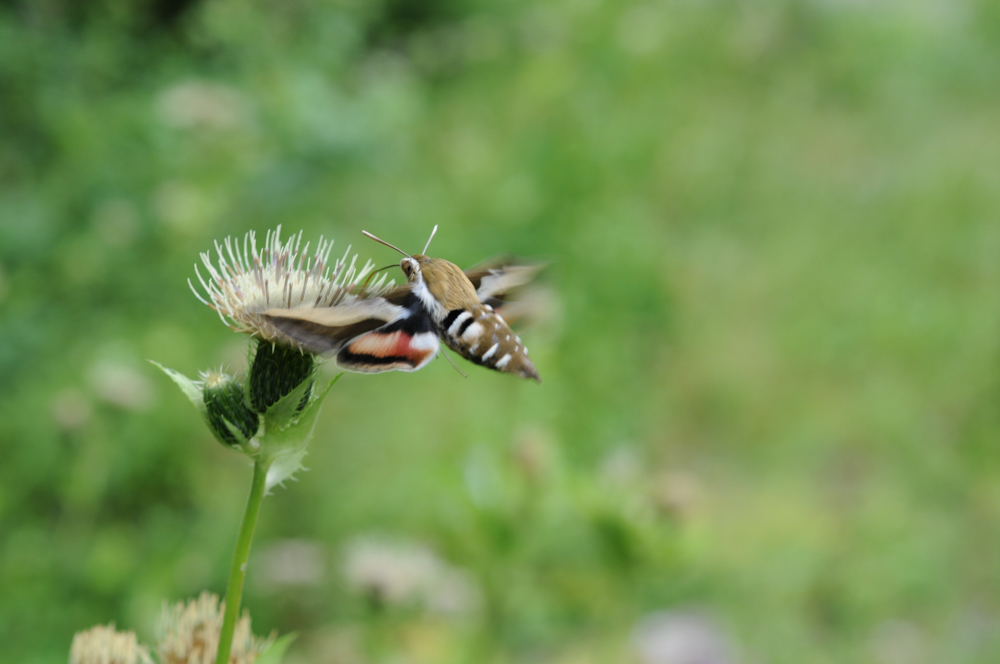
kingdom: Animalia
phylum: Arthropoda
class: Insecta
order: Lepidoptera
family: Sphingidae
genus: Hyles
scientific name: Hyles euphorbiae
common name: Spurge hawk-moth
